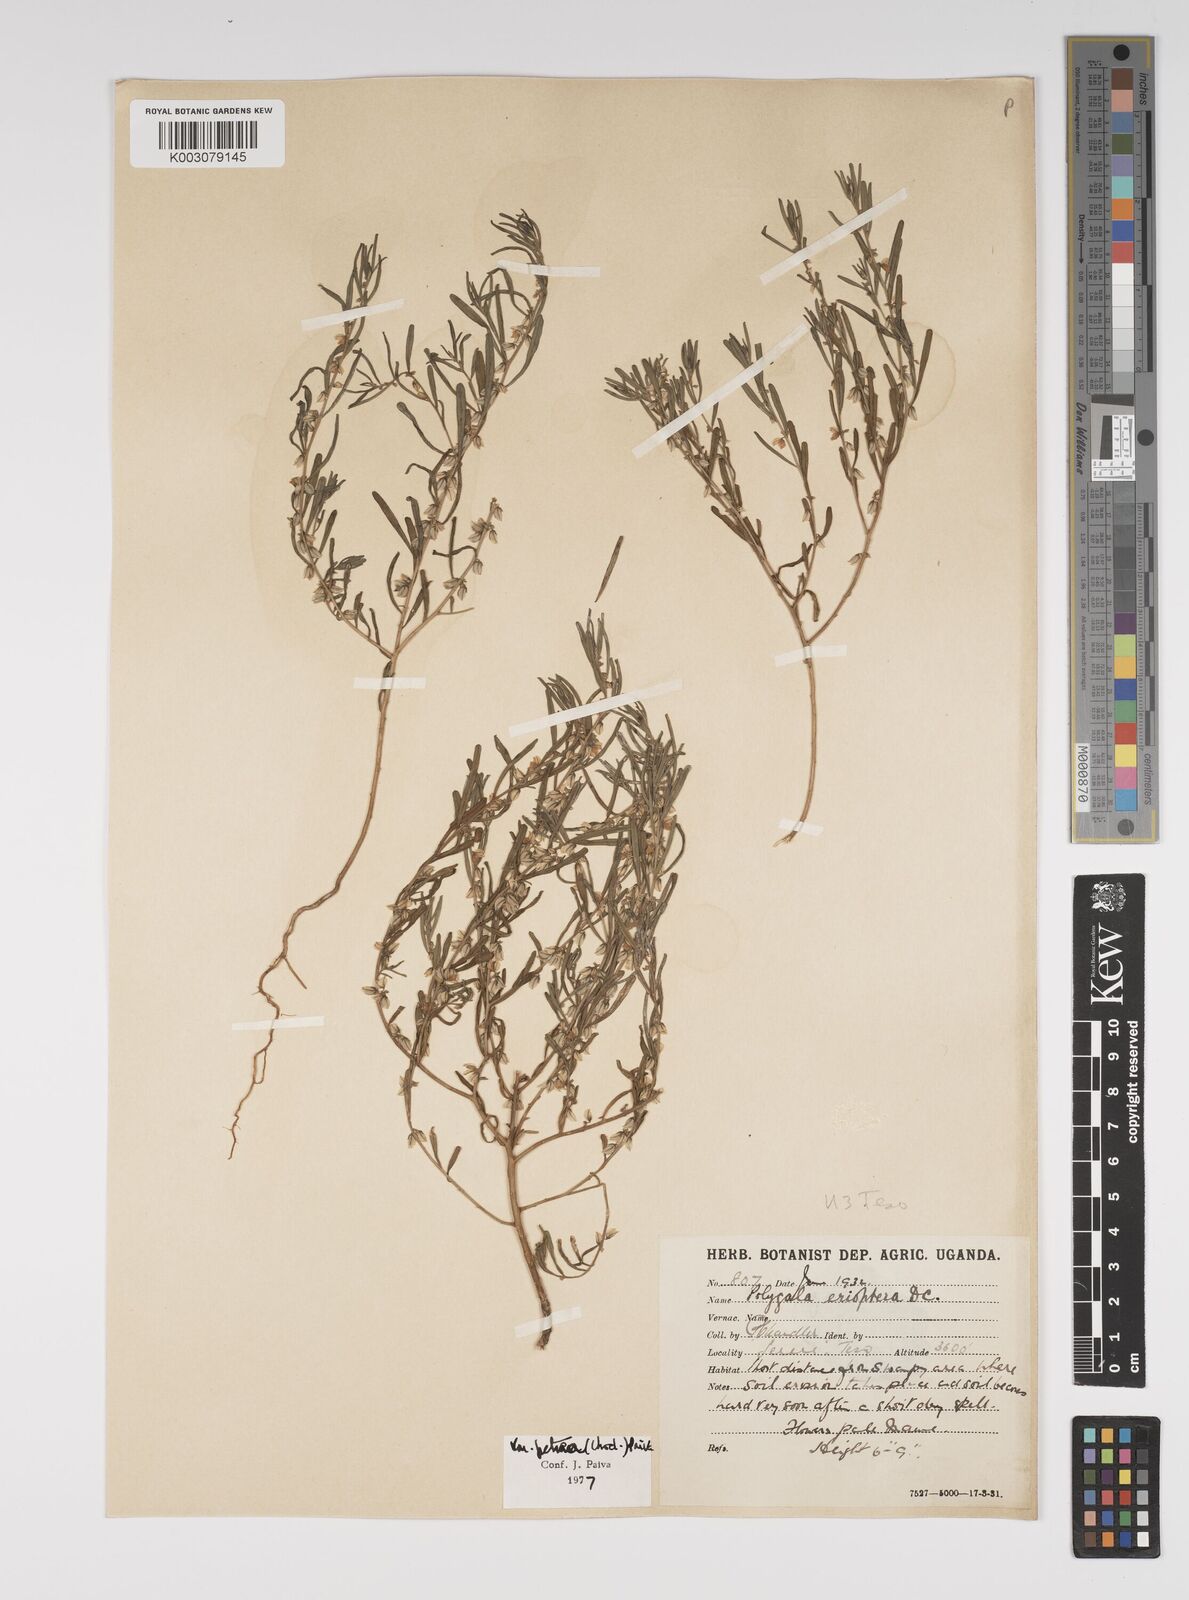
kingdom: Plantae
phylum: Tracheophyta
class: Magnoliopsida
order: Fabales
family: Polygalaceae
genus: Polygala
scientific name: Polygala erioptera
